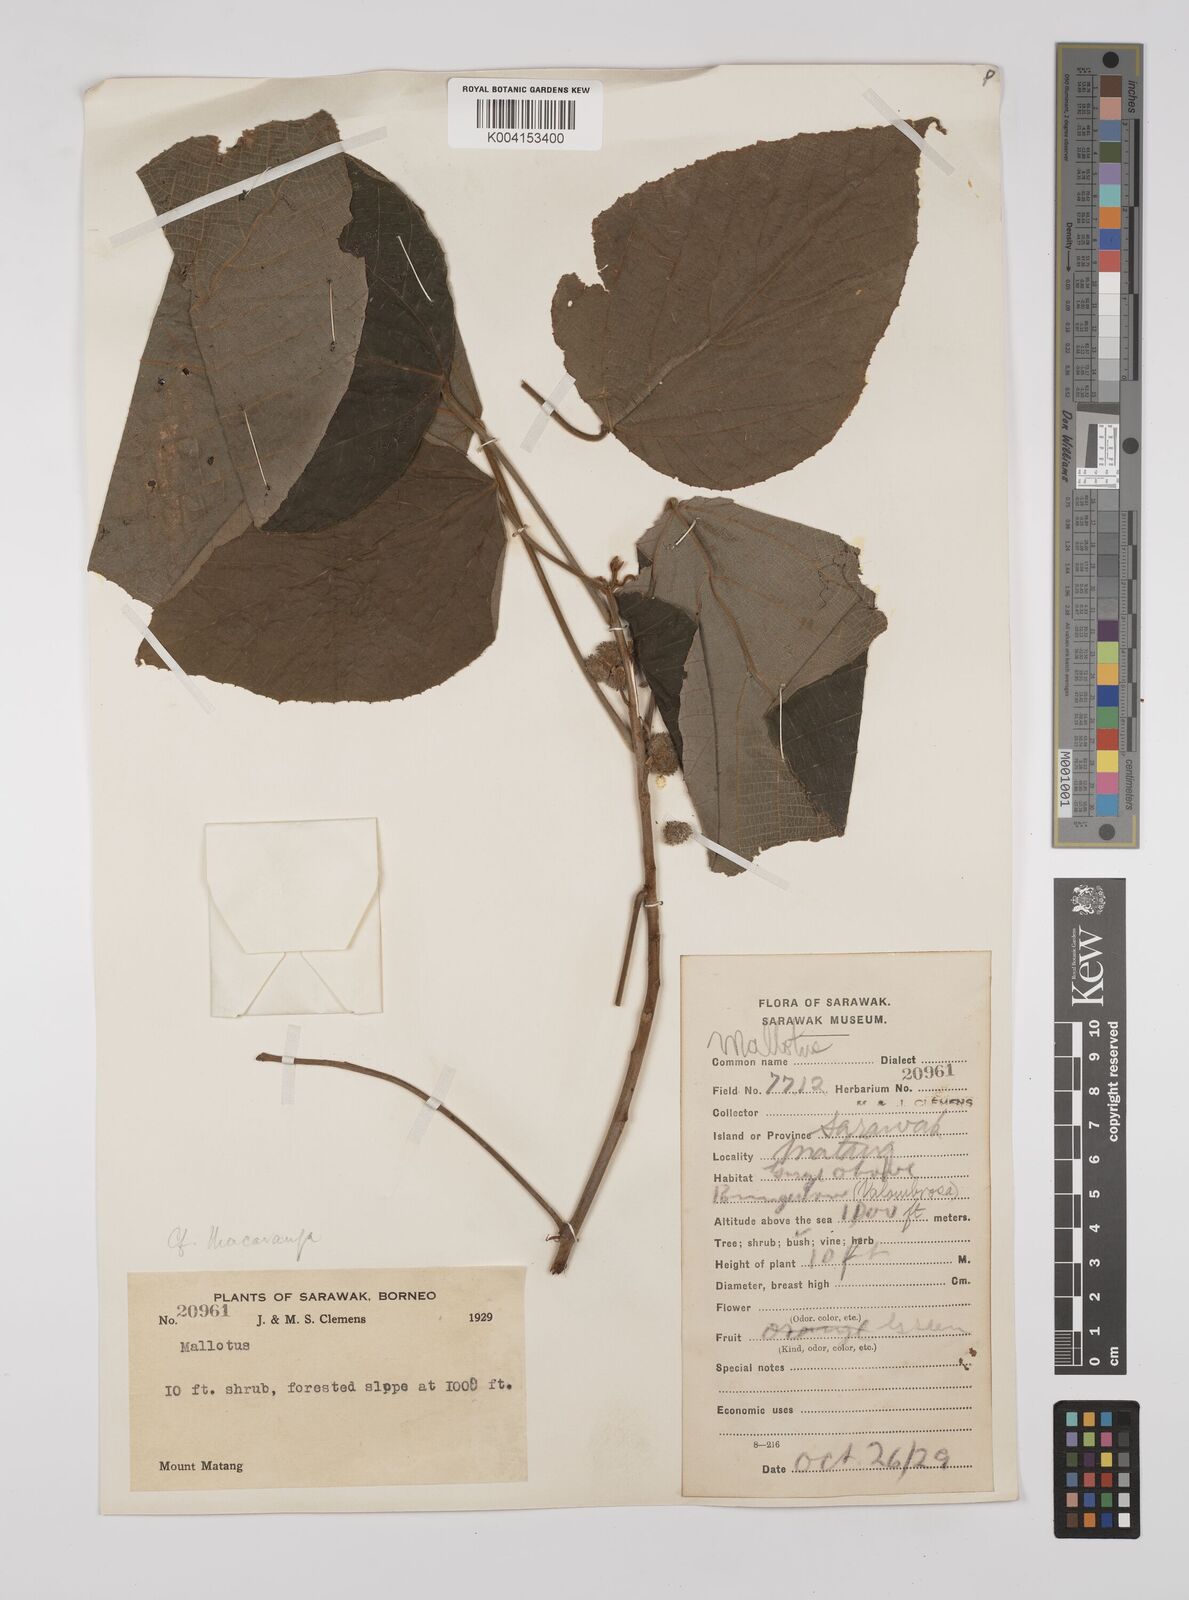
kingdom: Plantae
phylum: Tracheophyta
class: Magnoliopsida
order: Malpighiales
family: Euphorbiaceae
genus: Macaranga
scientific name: Macaranga trichocarpa
